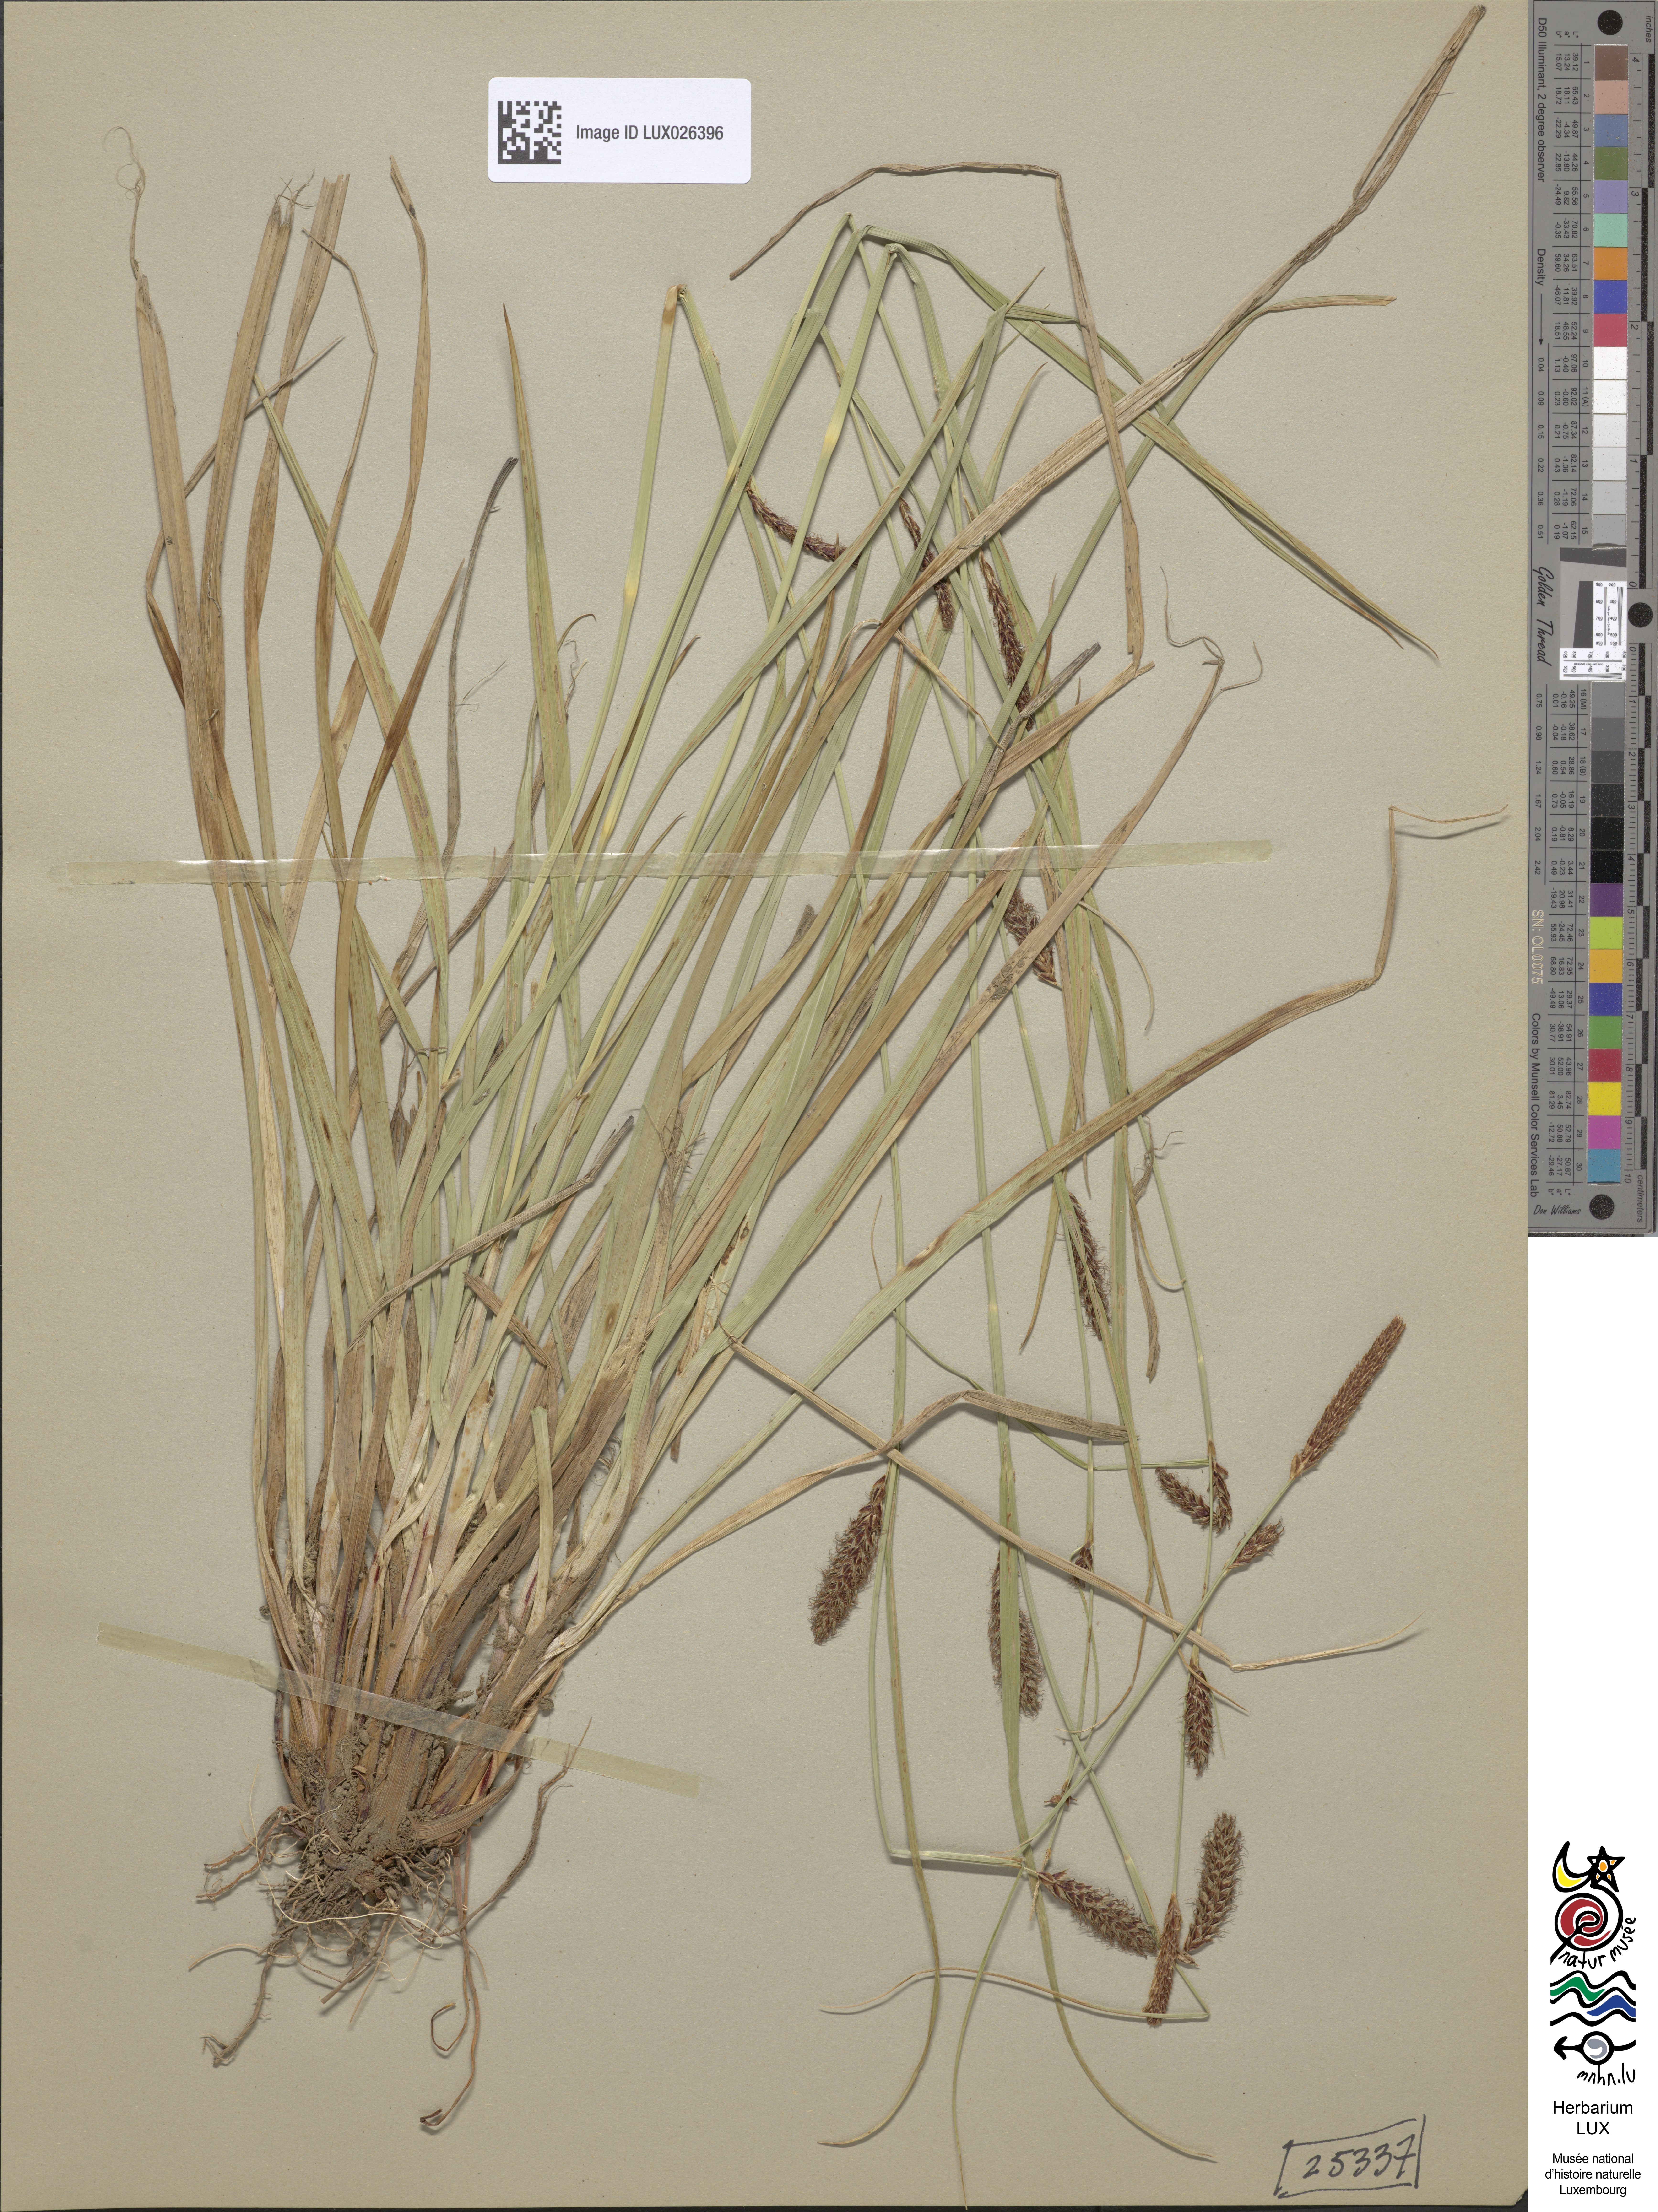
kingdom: Plantae
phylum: Tracheophyta
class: Liliopsida
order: Poales
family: Cyperaceae
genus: Carex
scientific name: Carex distans
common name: Distant sedge
